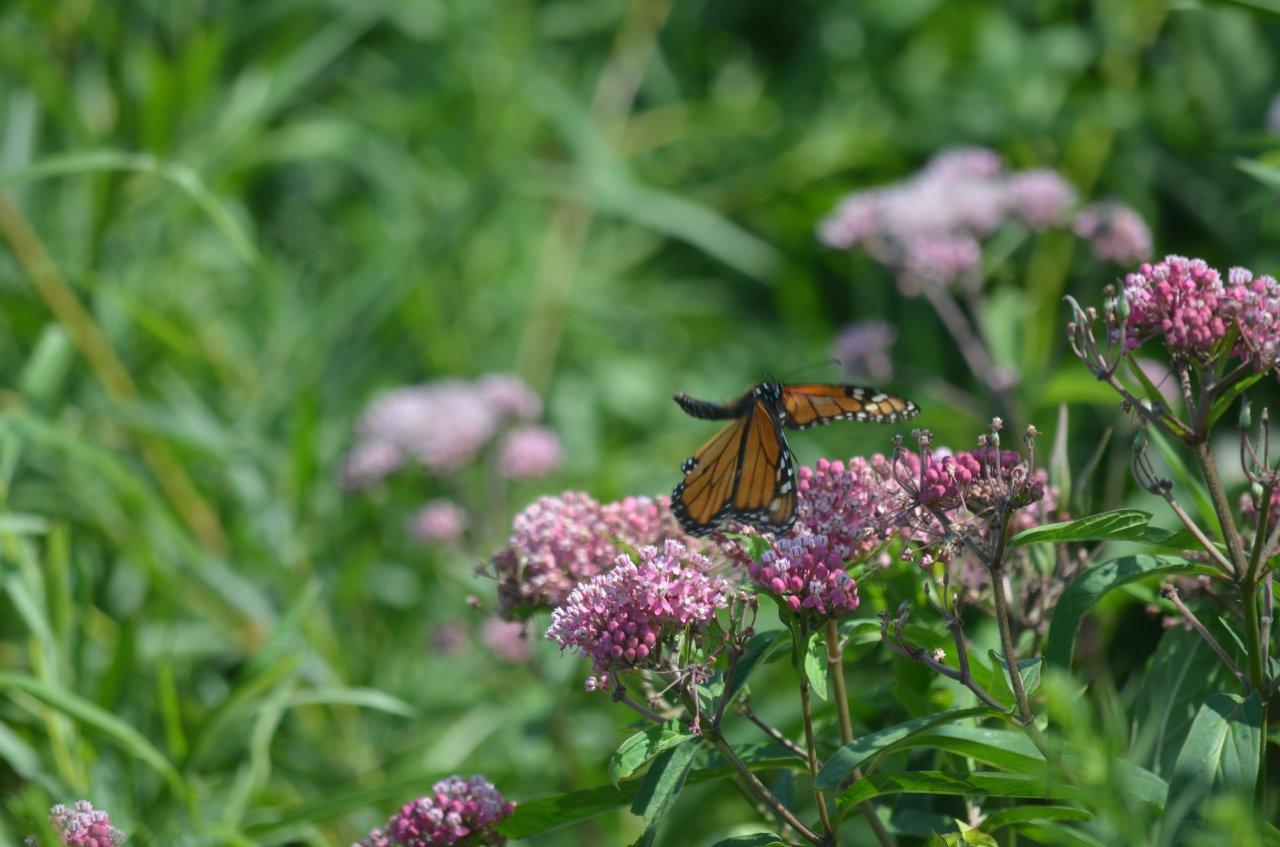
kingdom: Animalia
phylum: Arthropoda
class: Insecta
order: Lepidoptera
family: Nymphalidae
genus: Danaus
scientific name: Danaus plexippus
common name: Monarch
